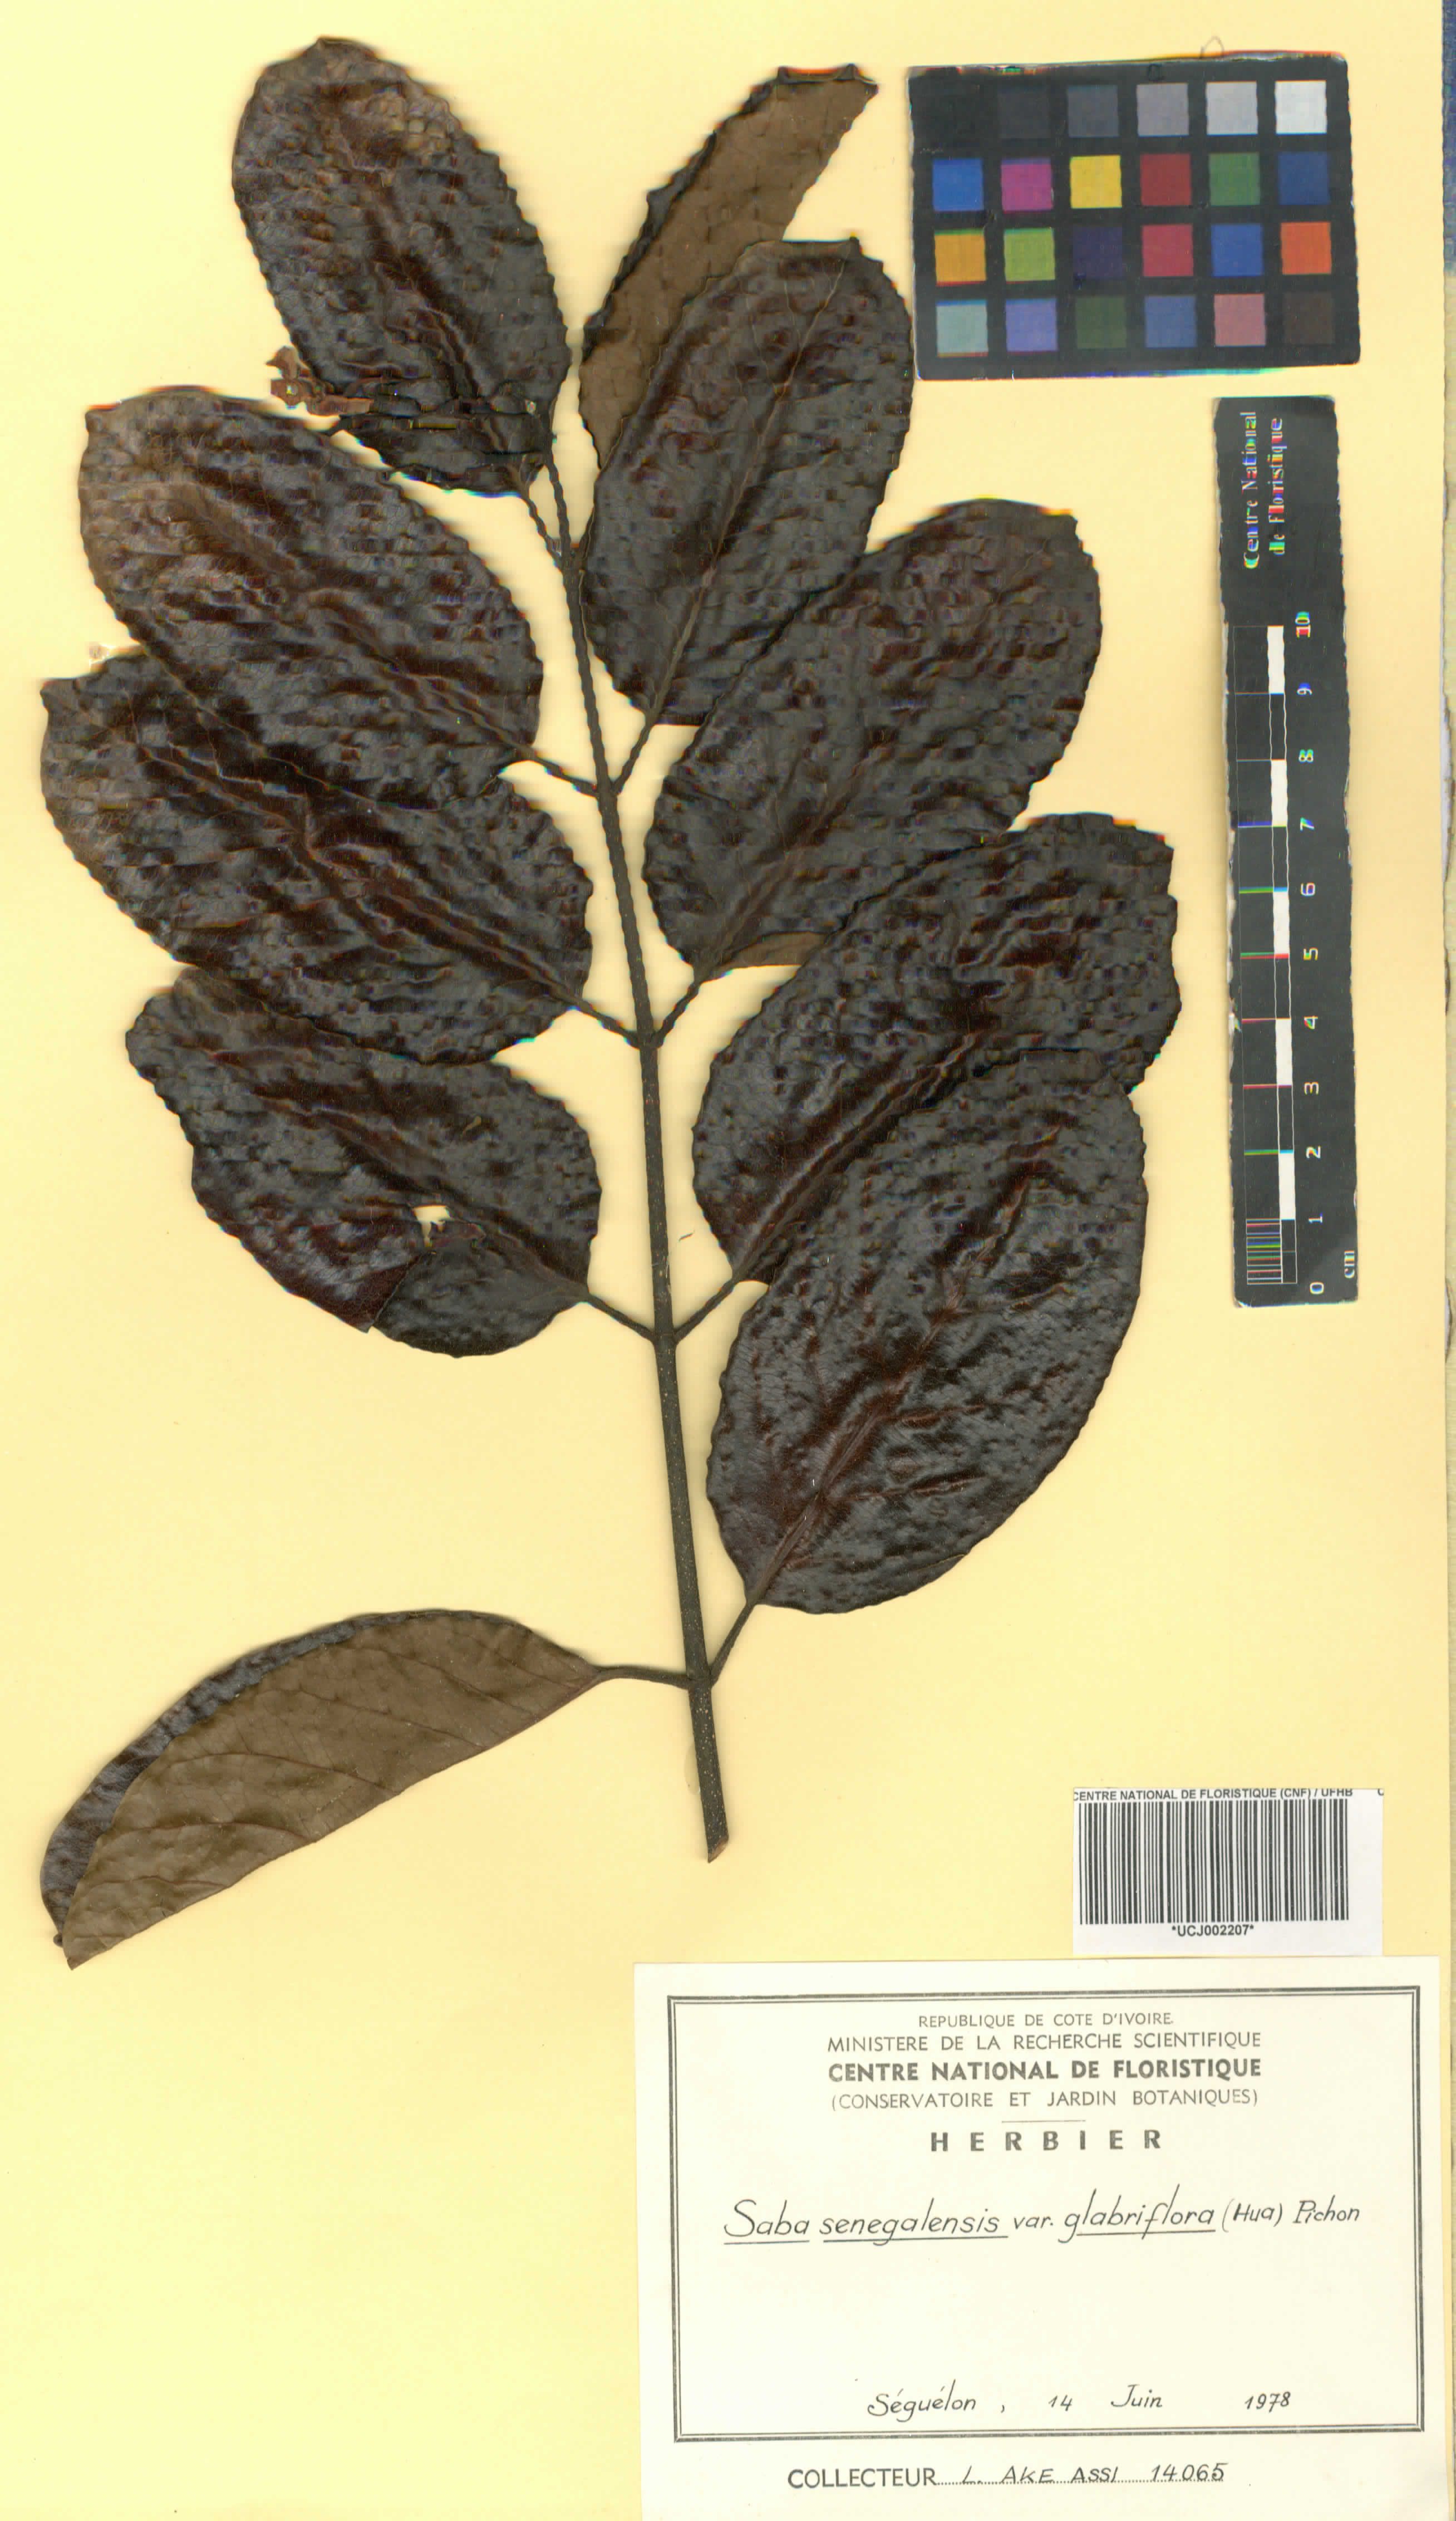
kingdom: Plantae
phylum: Tracheophyta
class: Magnoliopsida
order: Gentianales
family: Apocynaceae
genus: Saba
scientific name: Saba senegalensis
